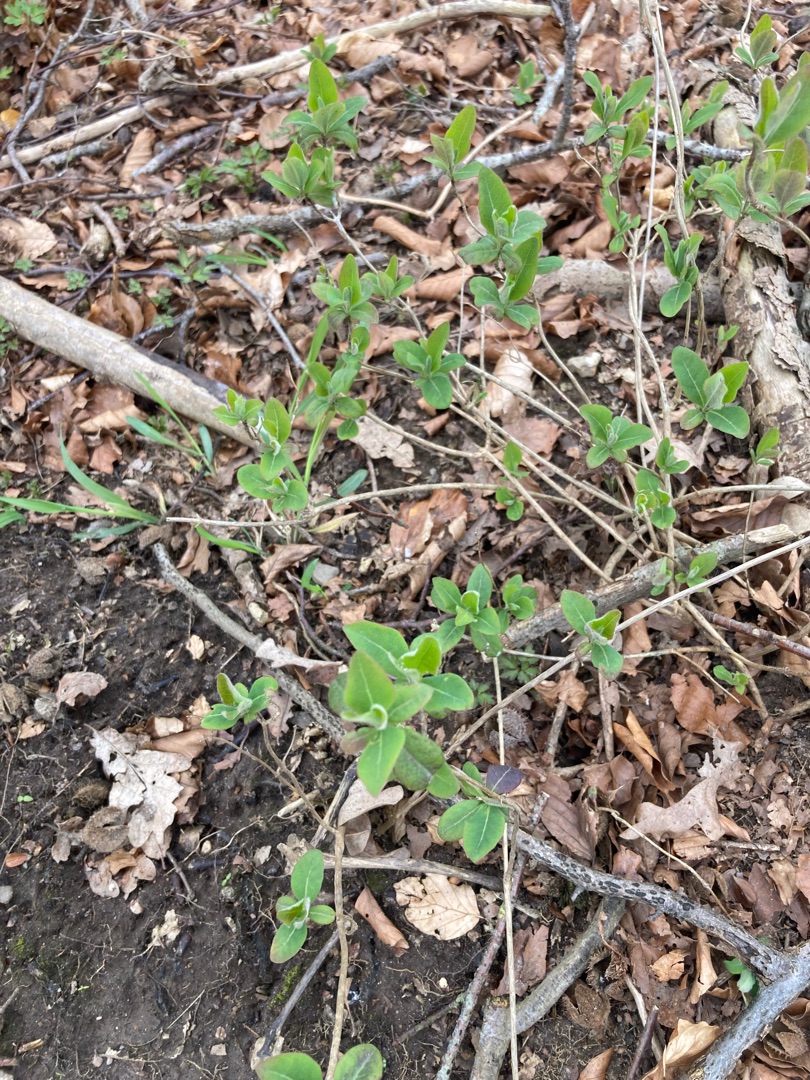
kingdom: Plantae
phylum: Tracheophyta
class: Magnoliopsida
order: Dipsacales
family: Caprifoliaceae
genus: Lonicera
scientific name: Lonicera periclymenum
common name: Almindelig gedeblad
